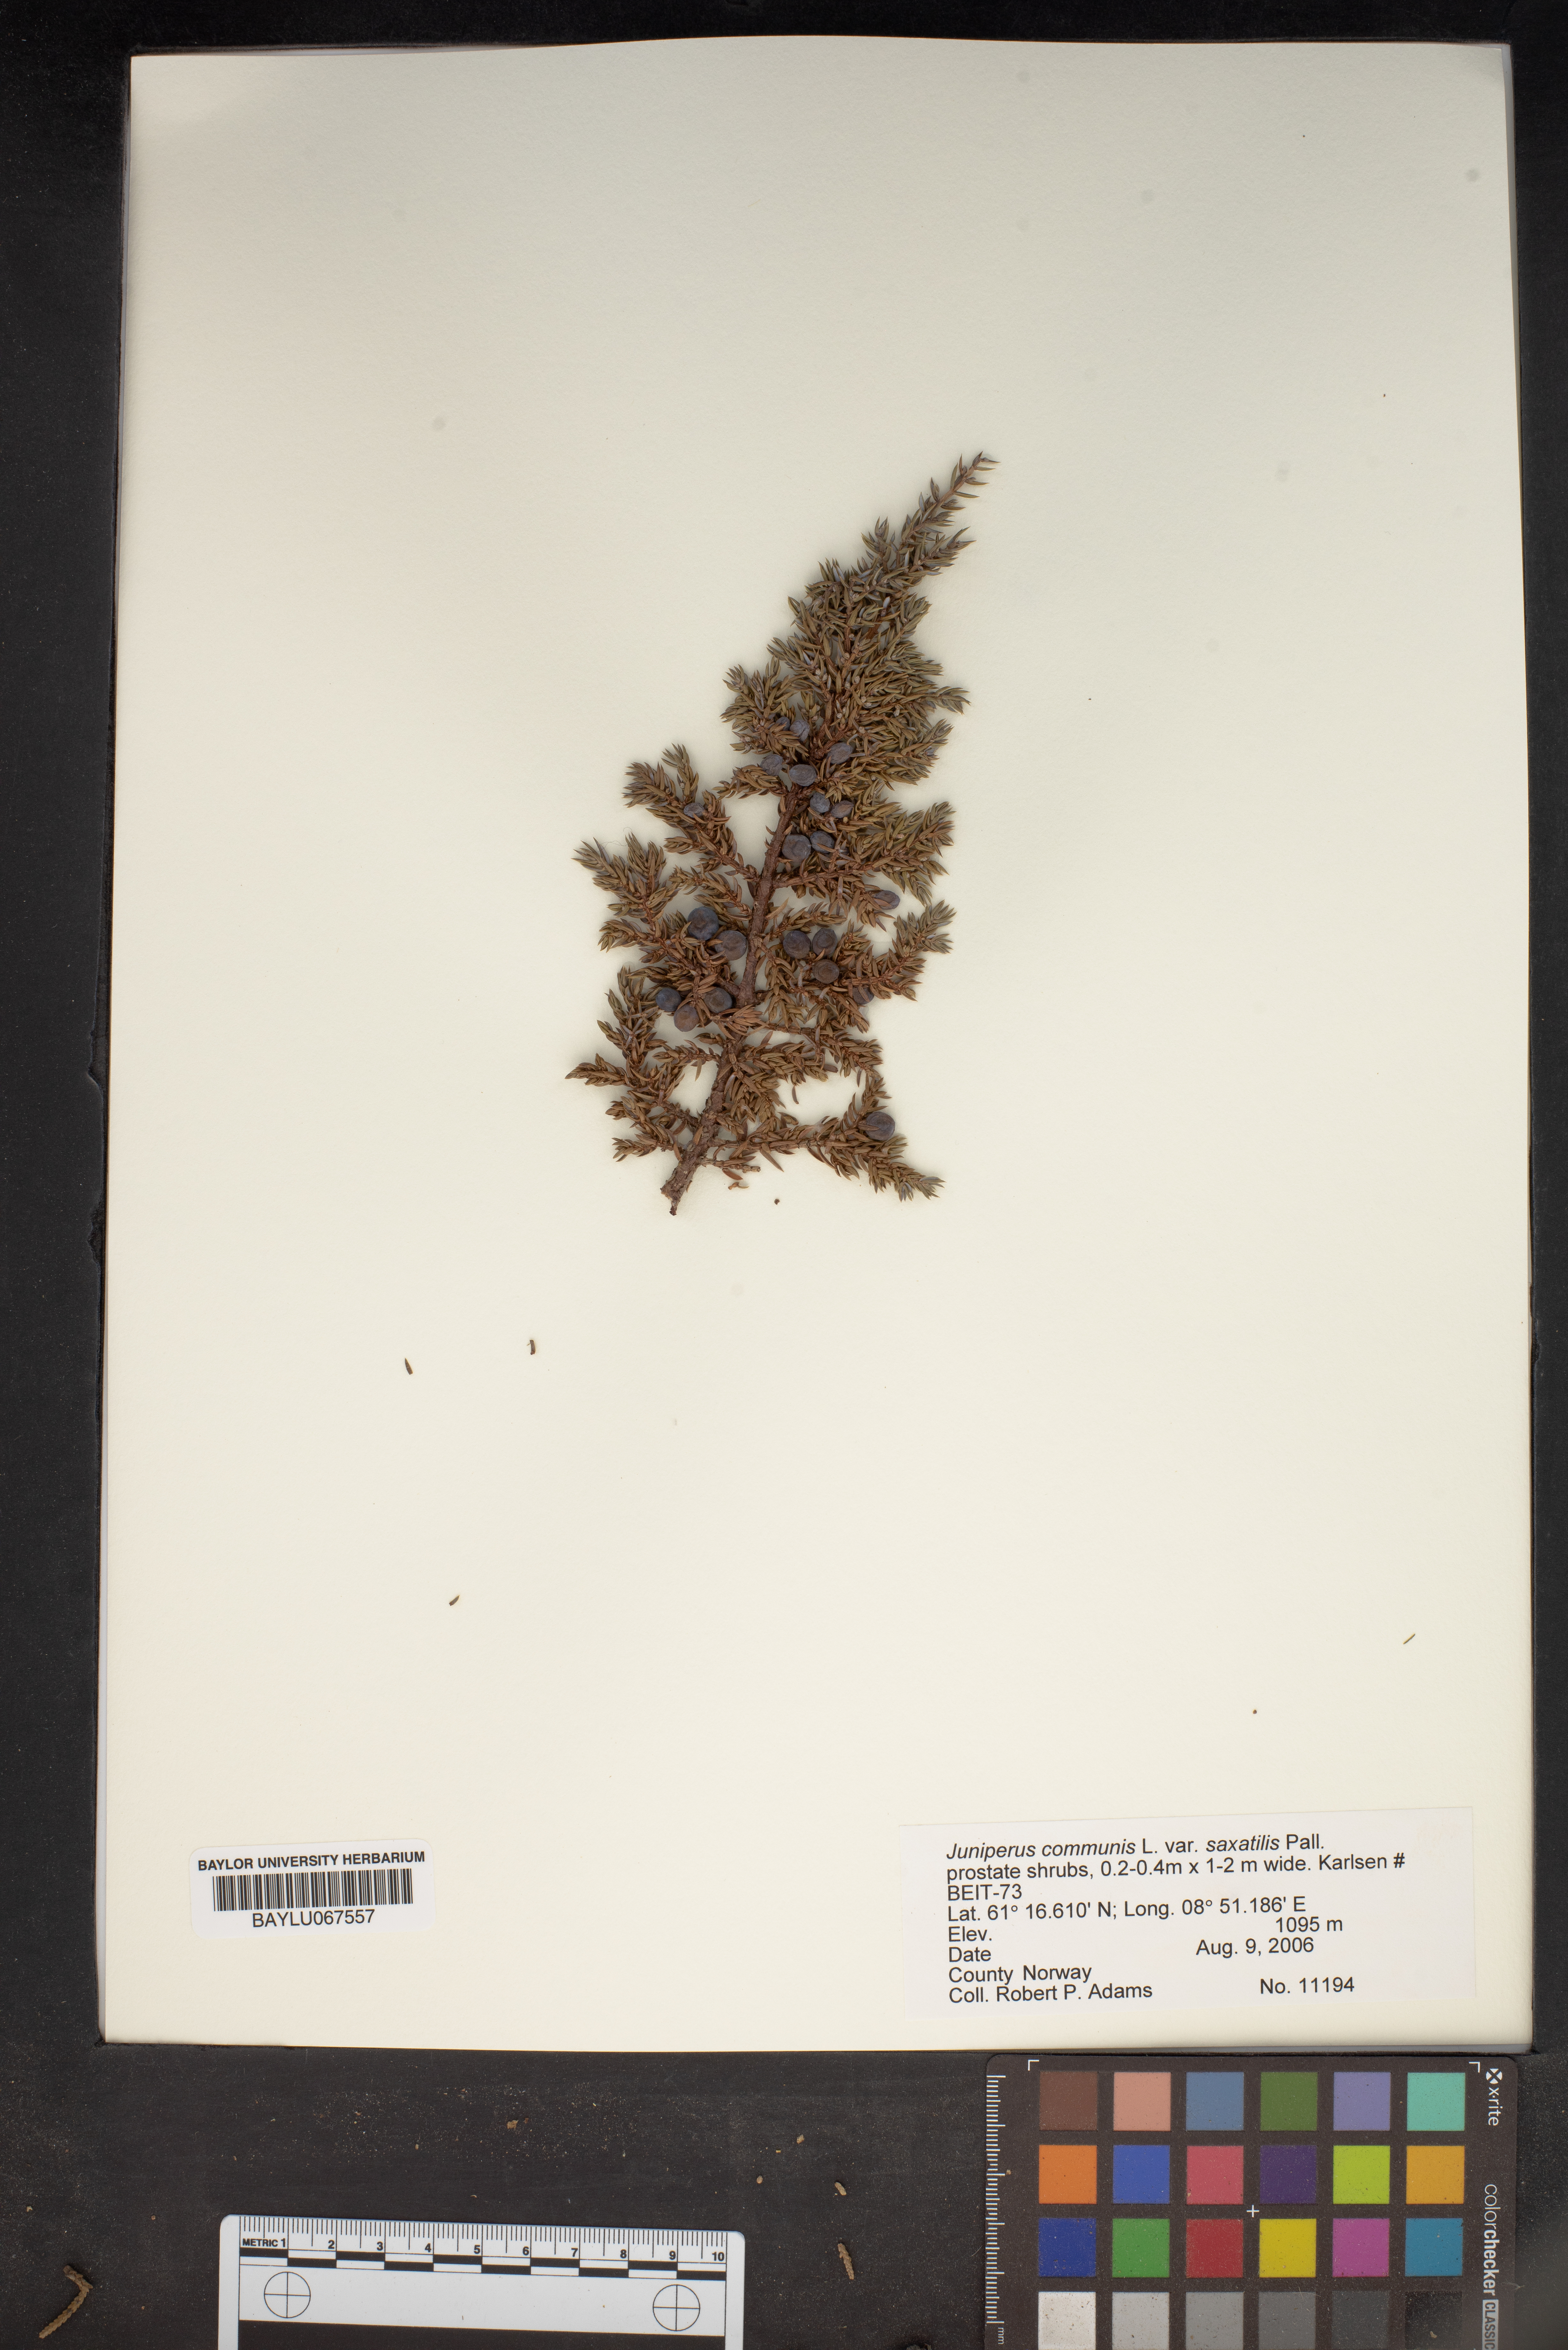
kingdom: Plantae
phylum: Tracheophyta
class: Pinopsida
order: Pinales
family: Cupressaceae
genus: Juniperus
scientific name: Juniperus communis
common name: Common juniper
